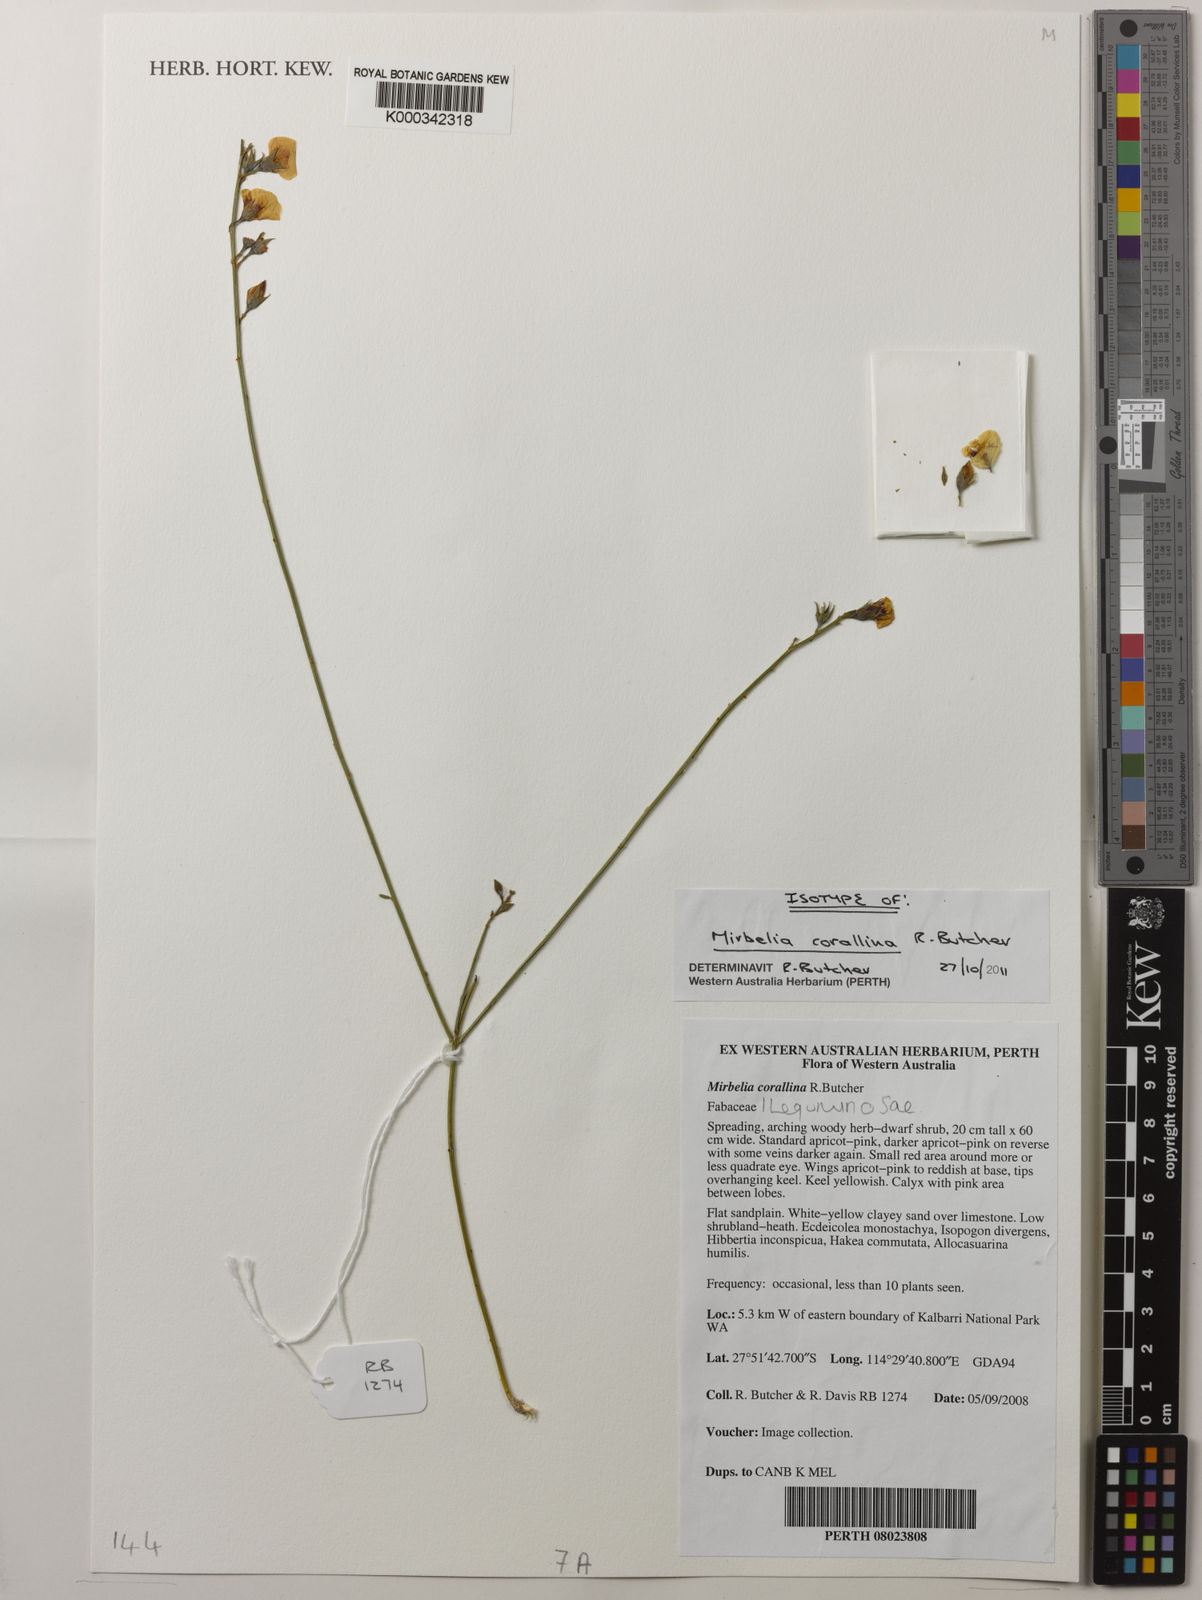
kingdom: Plantae
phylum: Tracheophyta
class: Magnoliopsida
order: Fabales
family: Fabaceae
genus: Mirbelia
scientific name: Mirbelia corallina
